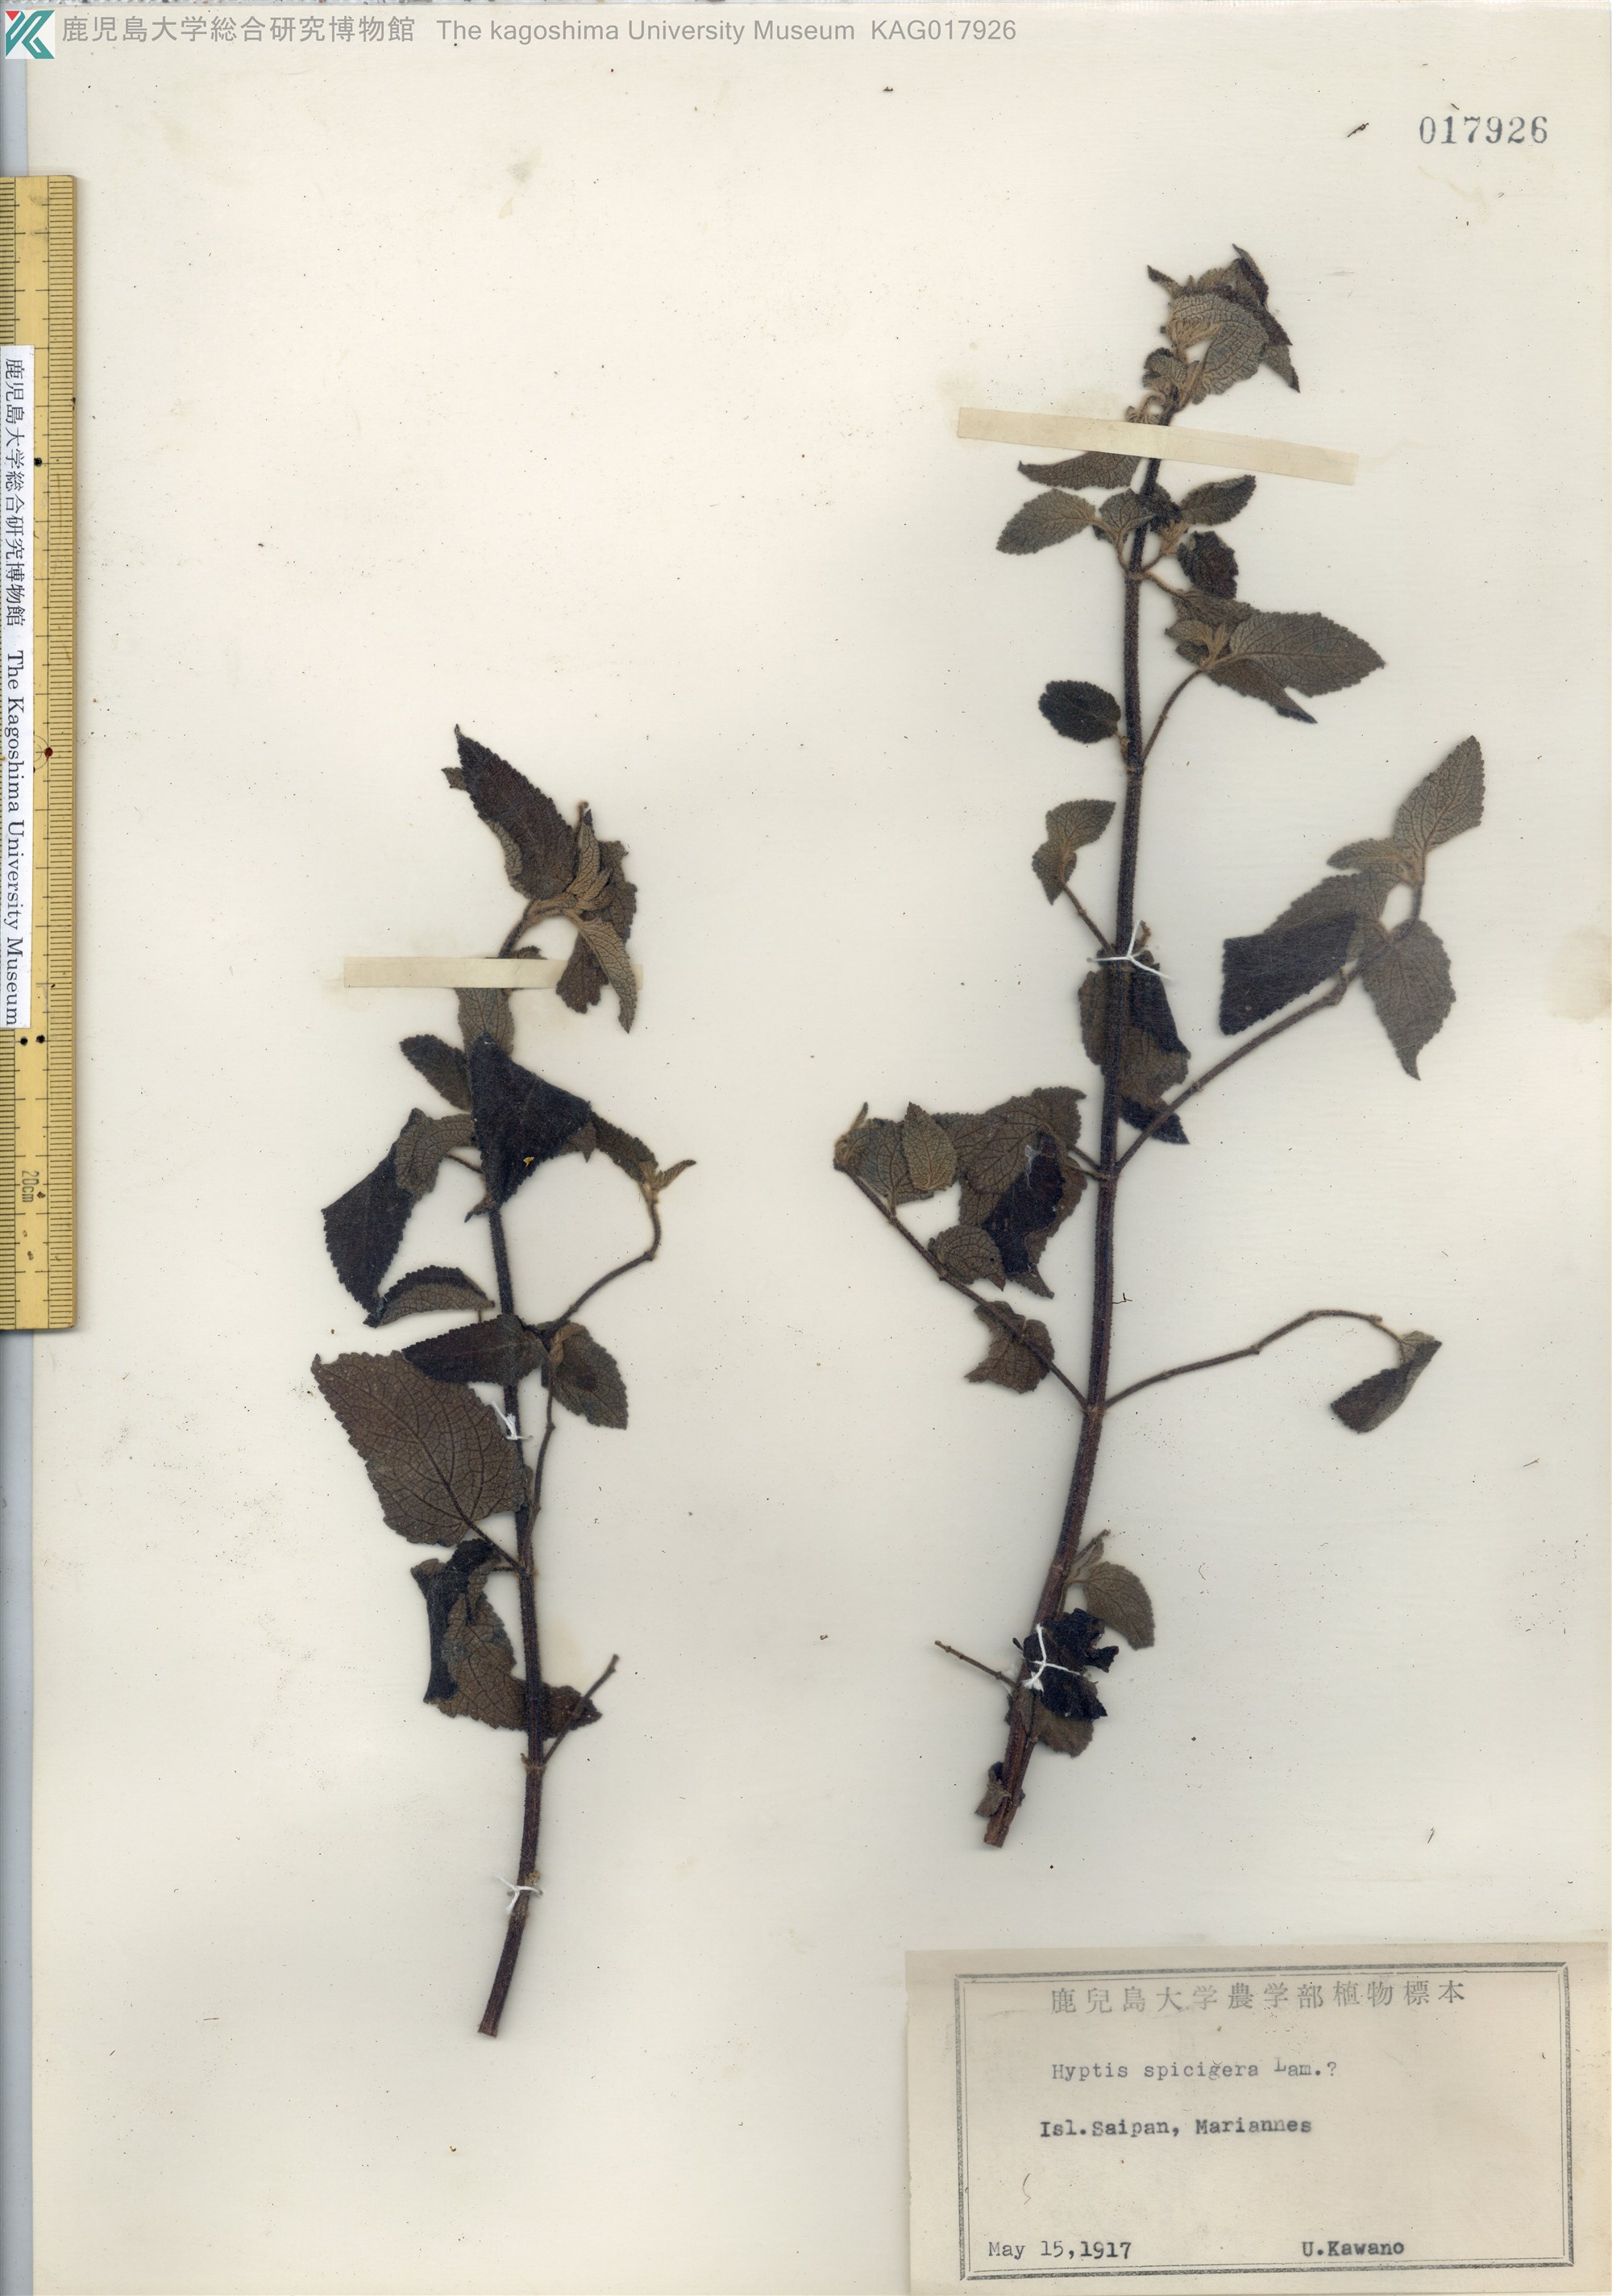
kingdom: Plantae
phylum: Tracheophyta
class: Magnoliopsida
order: Lamiales
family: Lamiaceae
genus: Cantinoa
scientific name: Cantinoa americana
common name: Black-sesame
